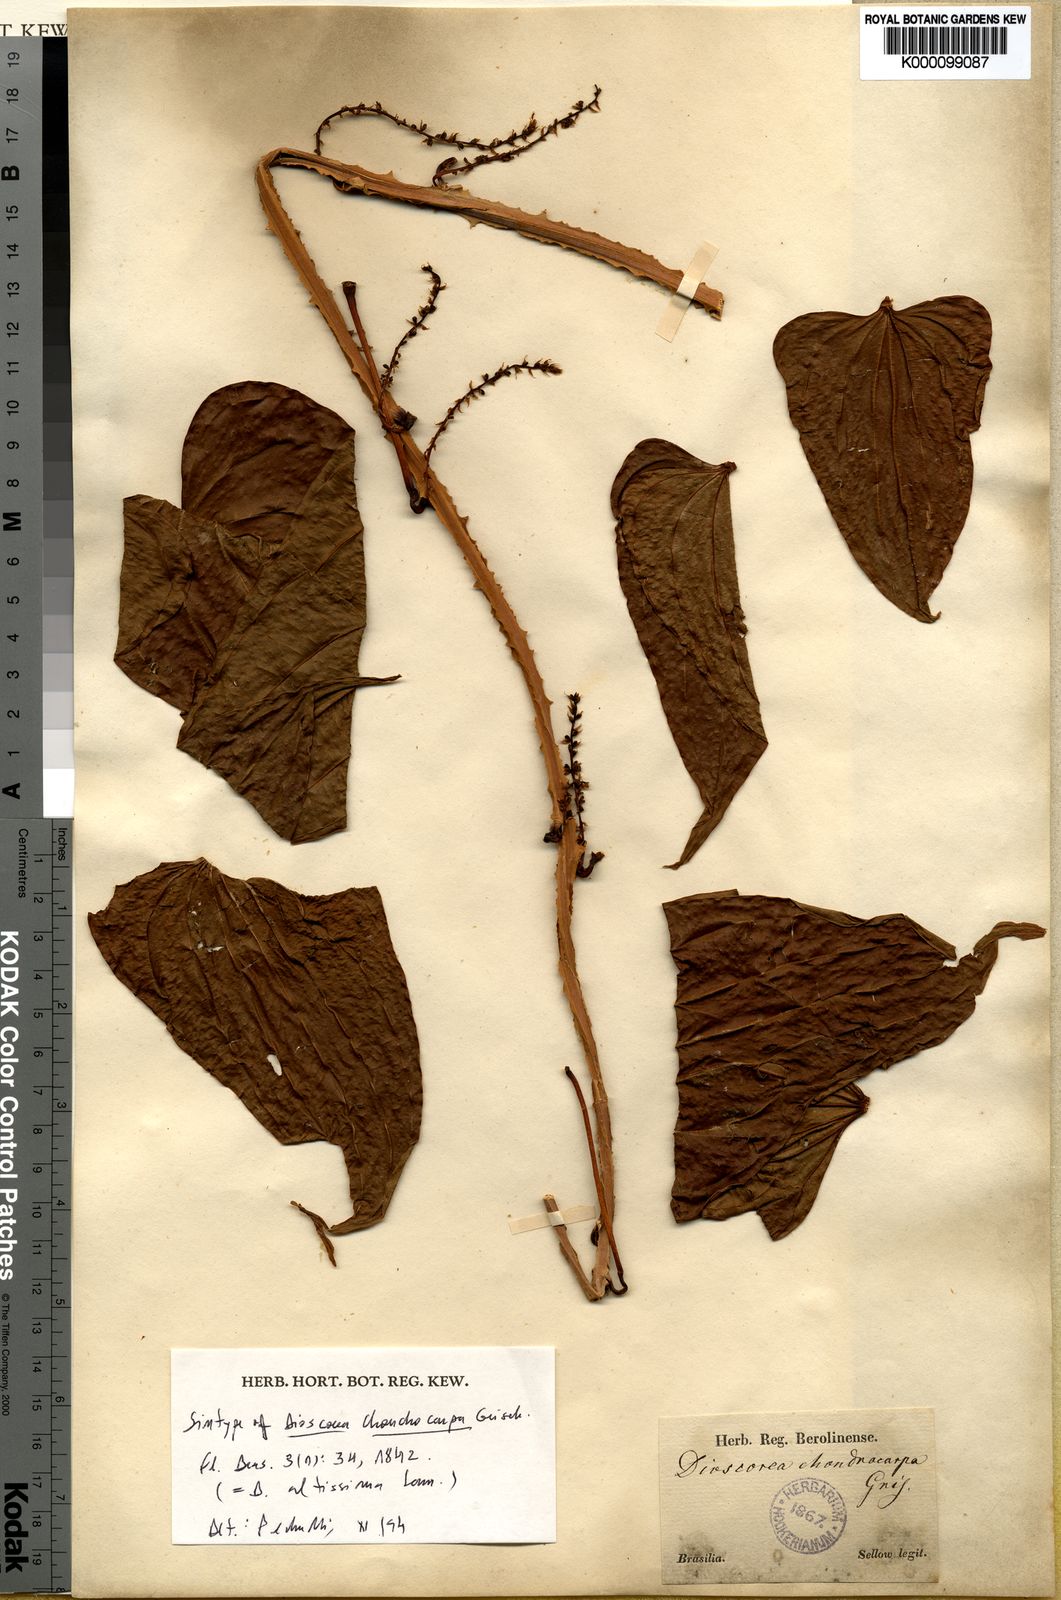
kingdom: Plantae
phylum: Tracheophyta
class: Liliopsida
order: Dioscoreales
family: Dioscoreaceae
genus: Dioscorea
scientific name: Dioscorea chondrocarpa
